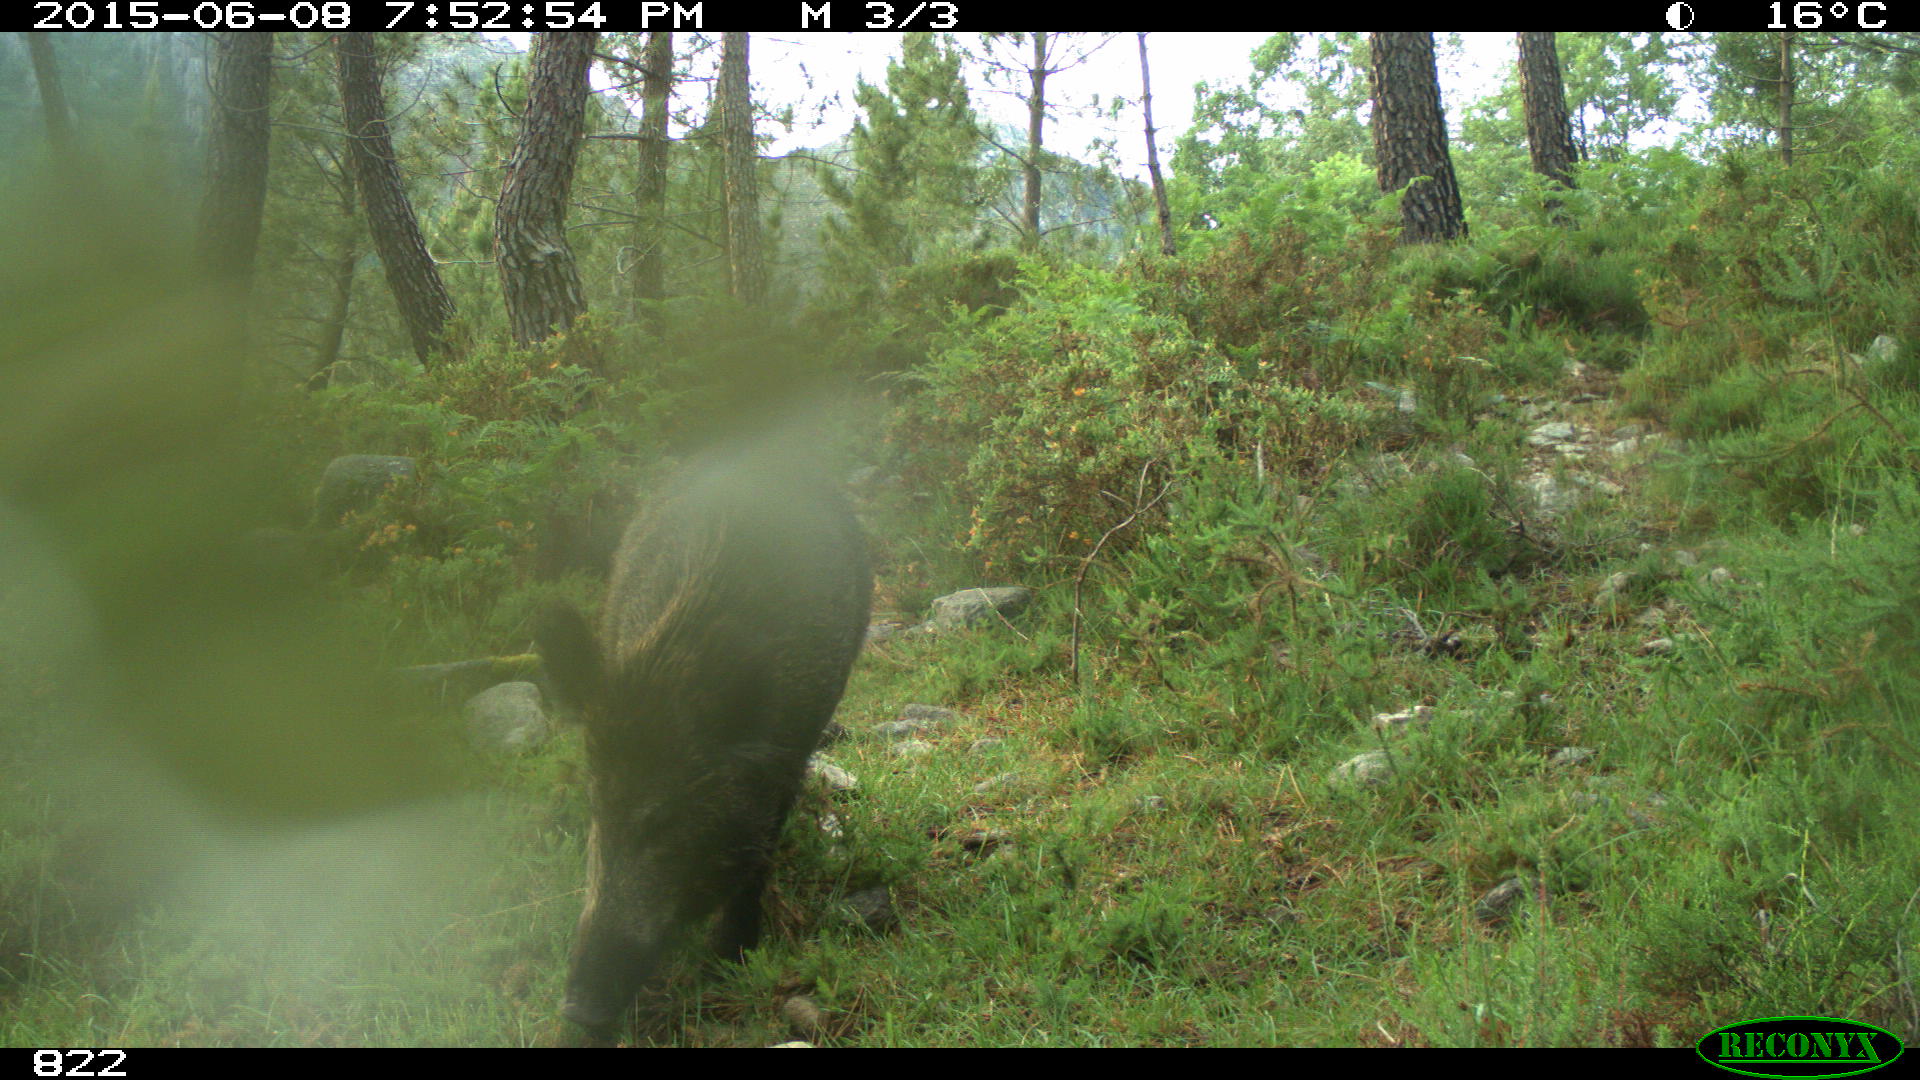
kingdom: Animalia
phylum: Chordata
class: Mammalia
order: Artiodactyla
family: Suidae
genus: Sus
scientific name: Sus scrofa
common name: Wild boar
